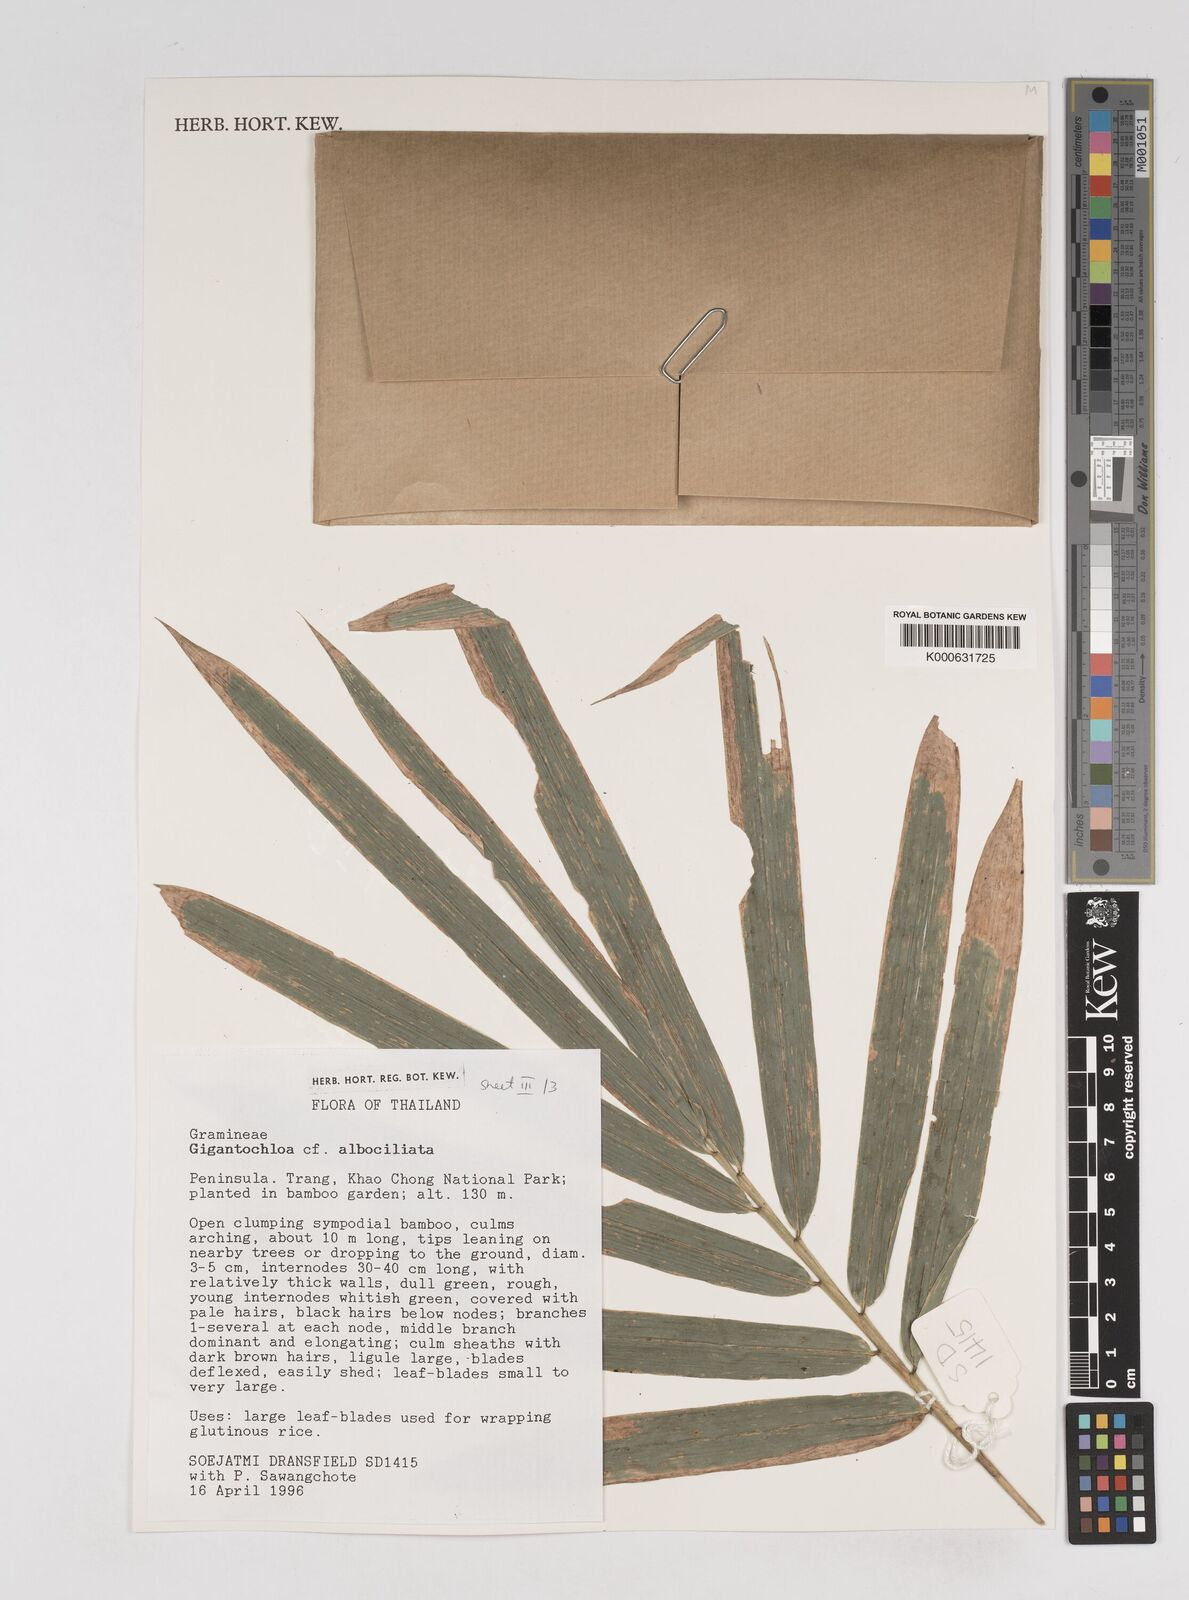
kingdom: Plantae
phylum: Tracheophyta
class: Liliopsida
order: Poales
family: Poaceae
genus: Gigantochloa
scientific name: Gigantochloa albociliata
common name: White-fringe gigantochloa
